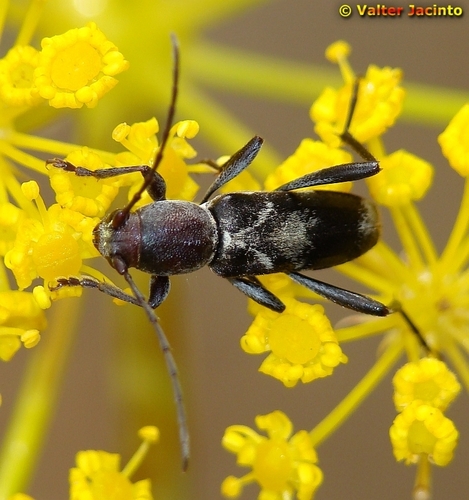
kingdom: Animalia
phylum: Arthropoda
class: Insecta
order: Coleoptera
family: Cerambycidae
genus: Chlorophorus
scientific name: Chlorophorus ruficornis
